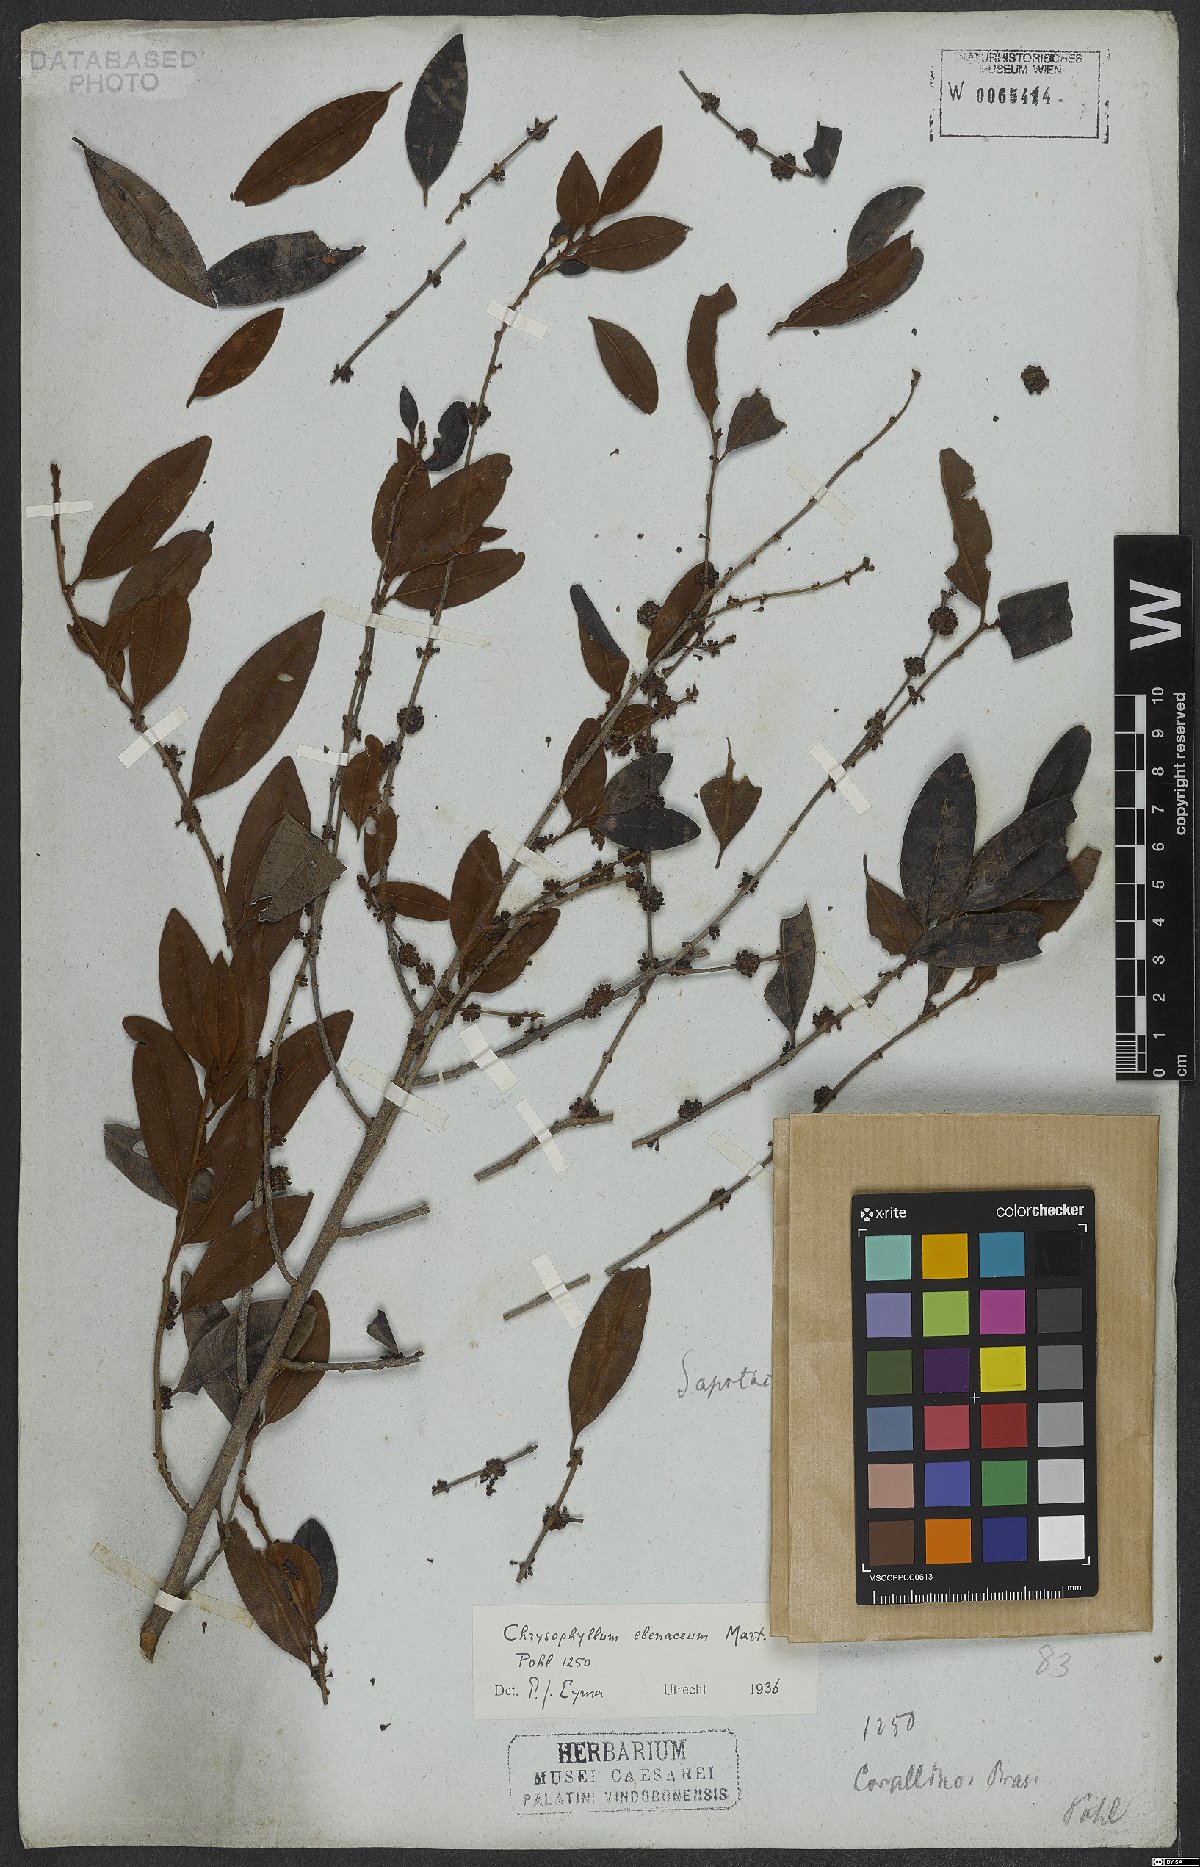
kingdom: Plantae
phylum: Tracheophyta
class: Magnoliopsida
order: Ericales
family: Sapotaceae
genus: Chrysophyllum
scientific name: Chrysophyllum marginatum
